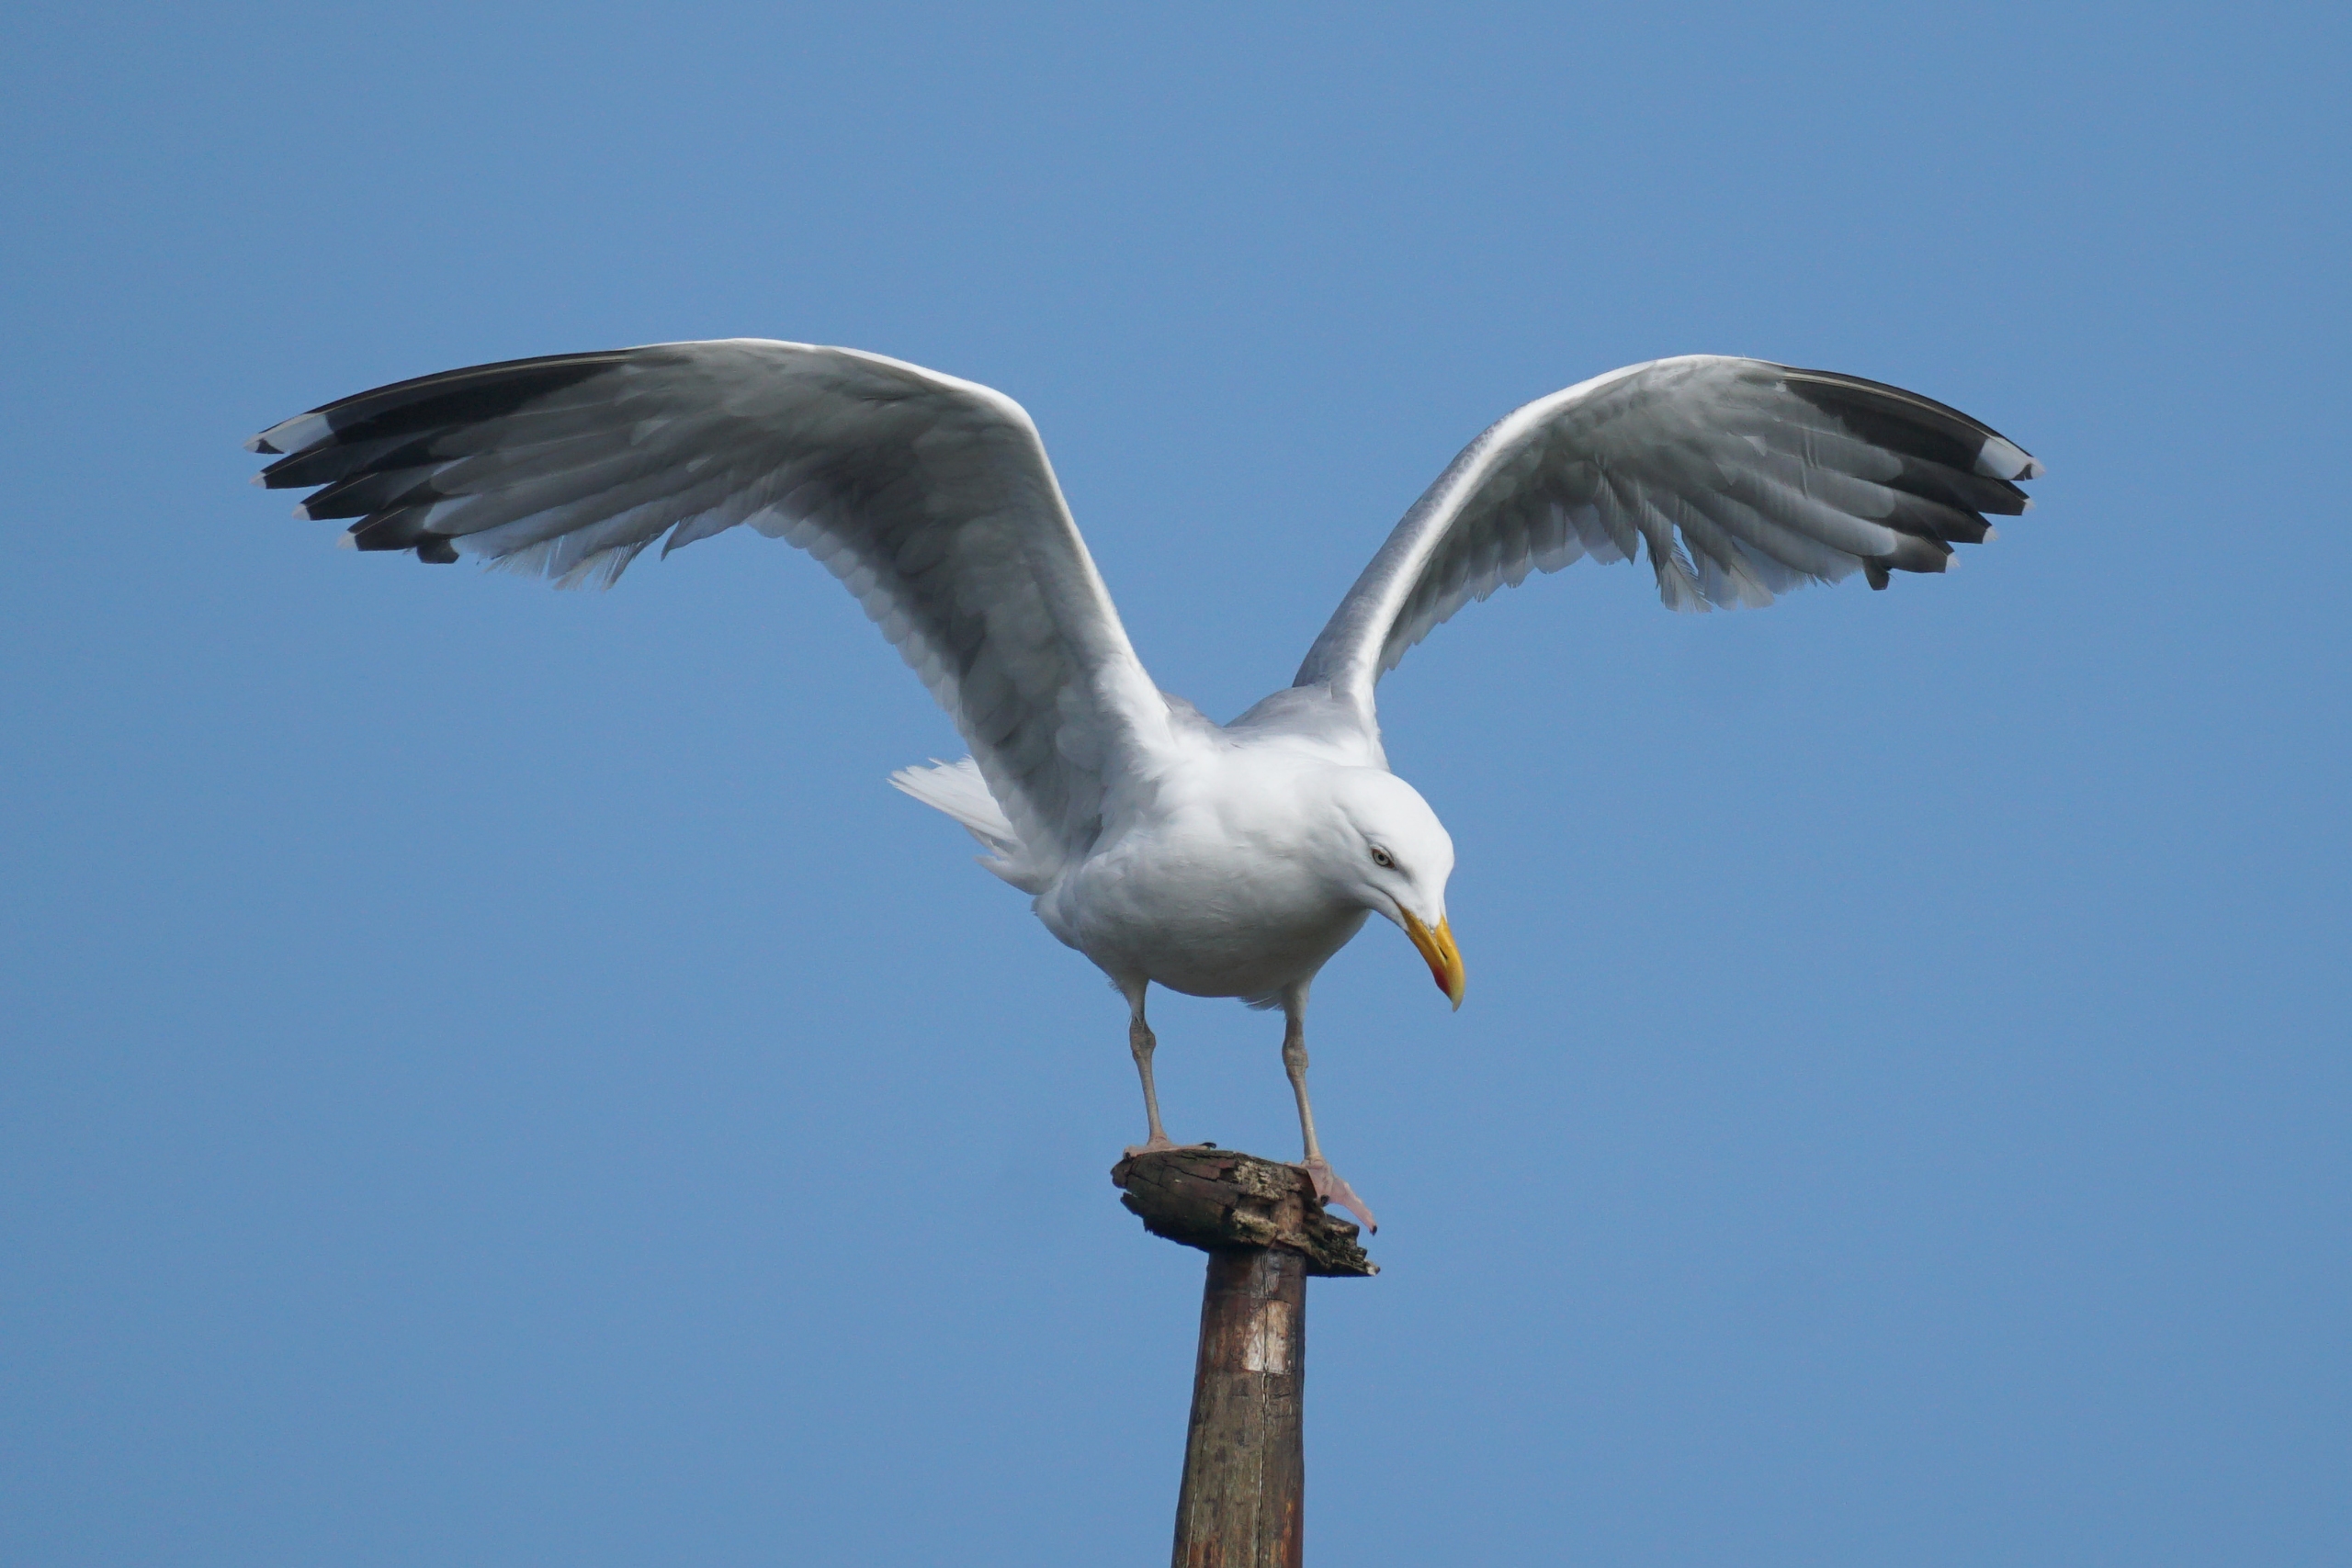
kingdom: Animalia
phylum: Chordata
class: Aves
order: Charadriiformes
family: Laridae
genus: Larus
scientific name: Larus argentatus
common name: Sølvmåge
